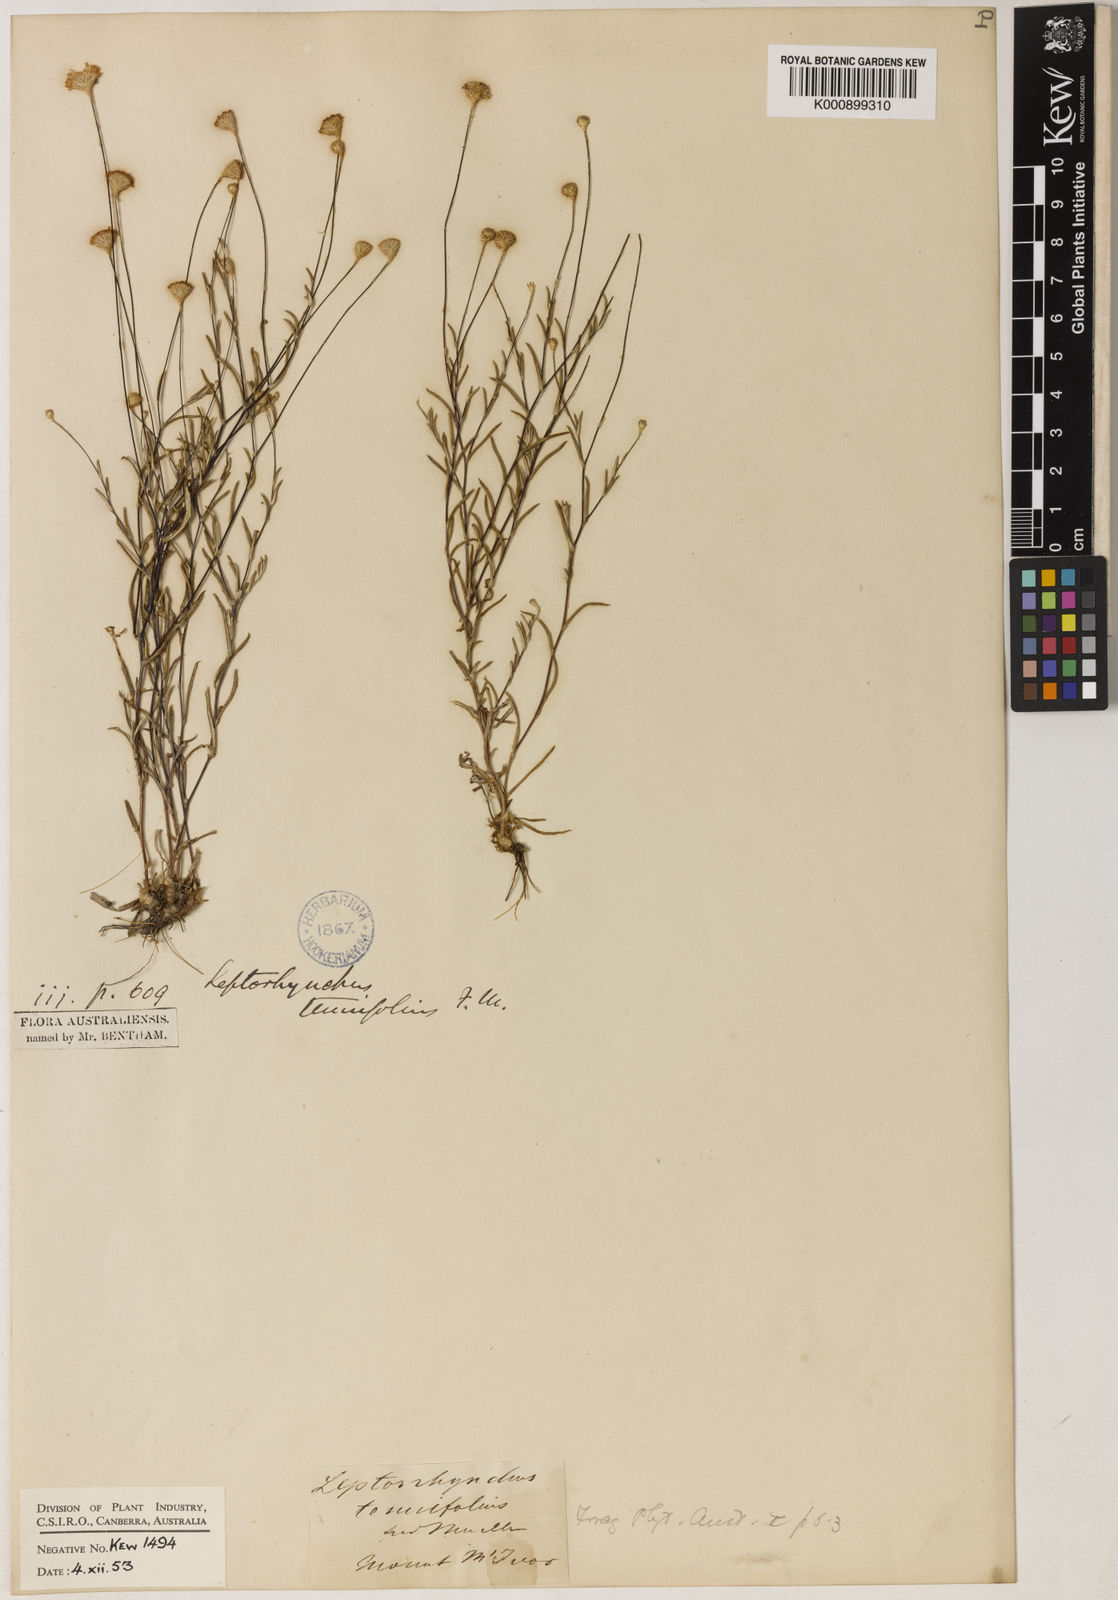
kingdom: Plantae
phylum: Tracheophyta
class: Magnoliopsida
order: Asterales
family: Asteraceae
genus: Leptorhynchos
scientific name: Leptorhynchos tenuifolius
